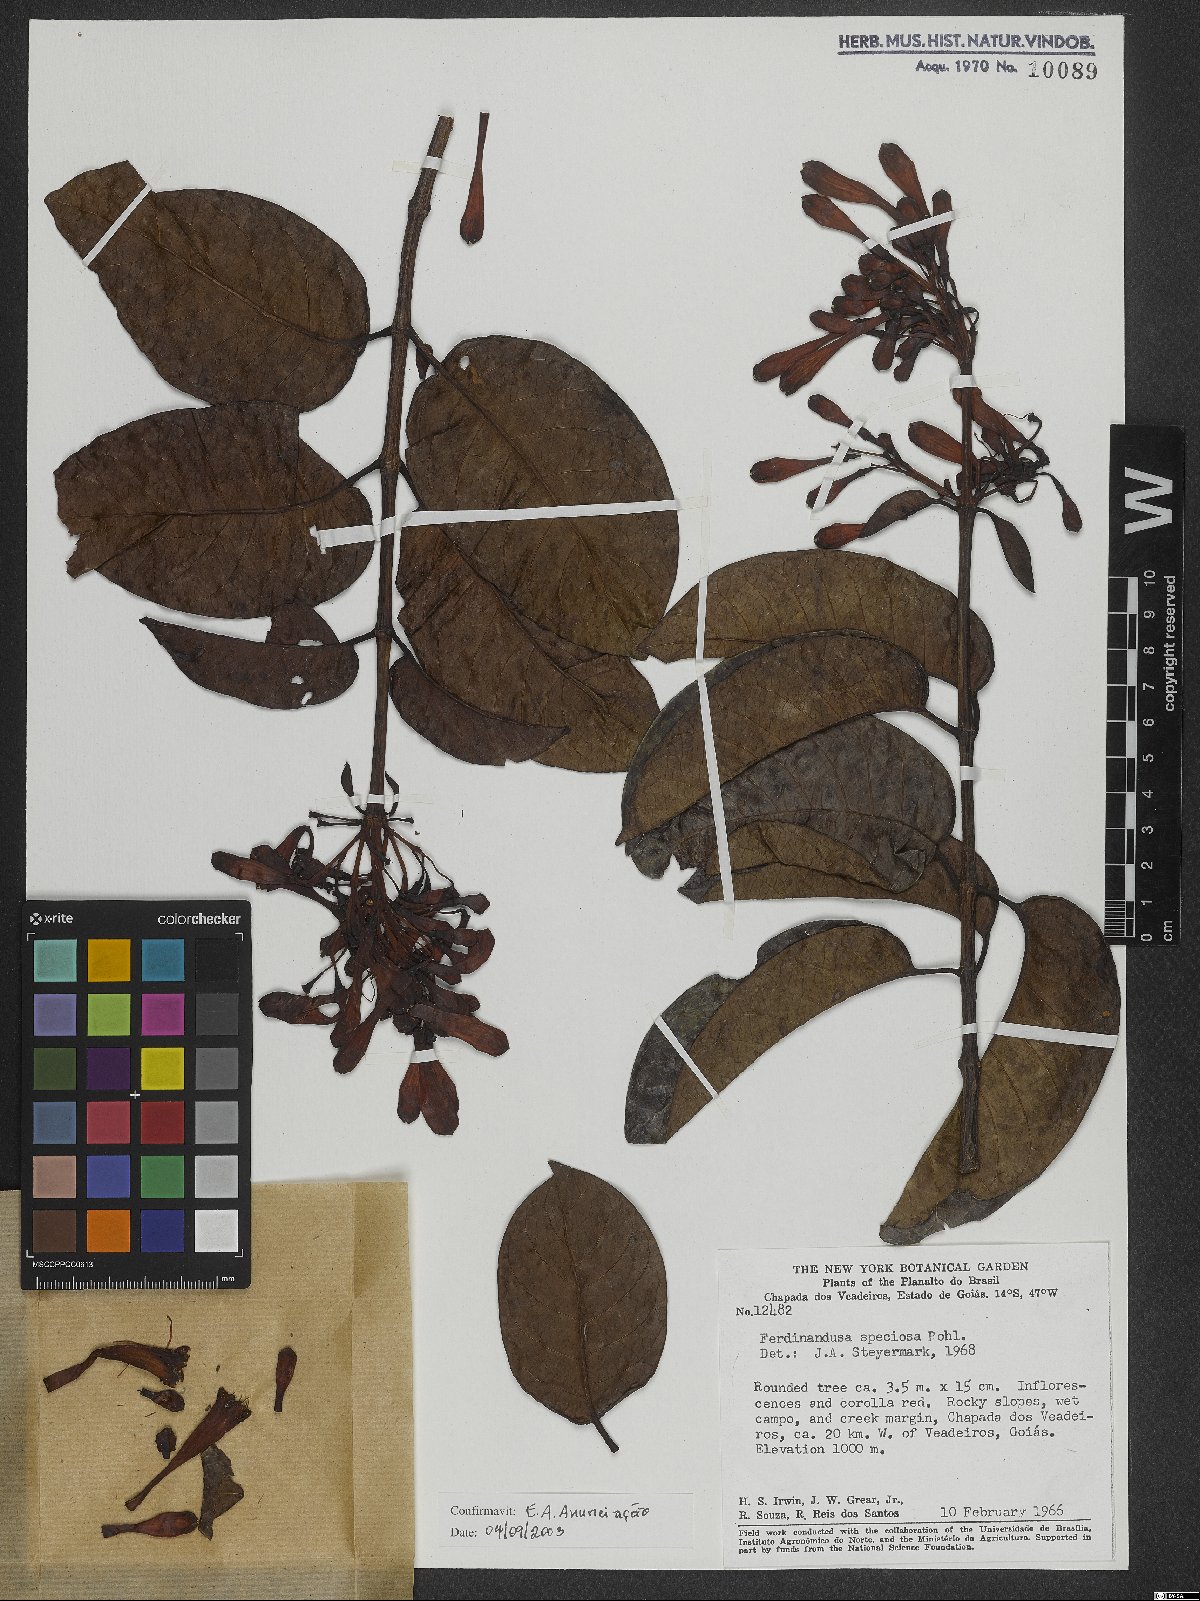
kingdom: Plantae
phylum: Tracheophyta
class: Magnoliopsida
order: Gentianales
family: Rubiaceae
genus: Ferdinandusa
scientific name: Ferdinandusa speciosa
